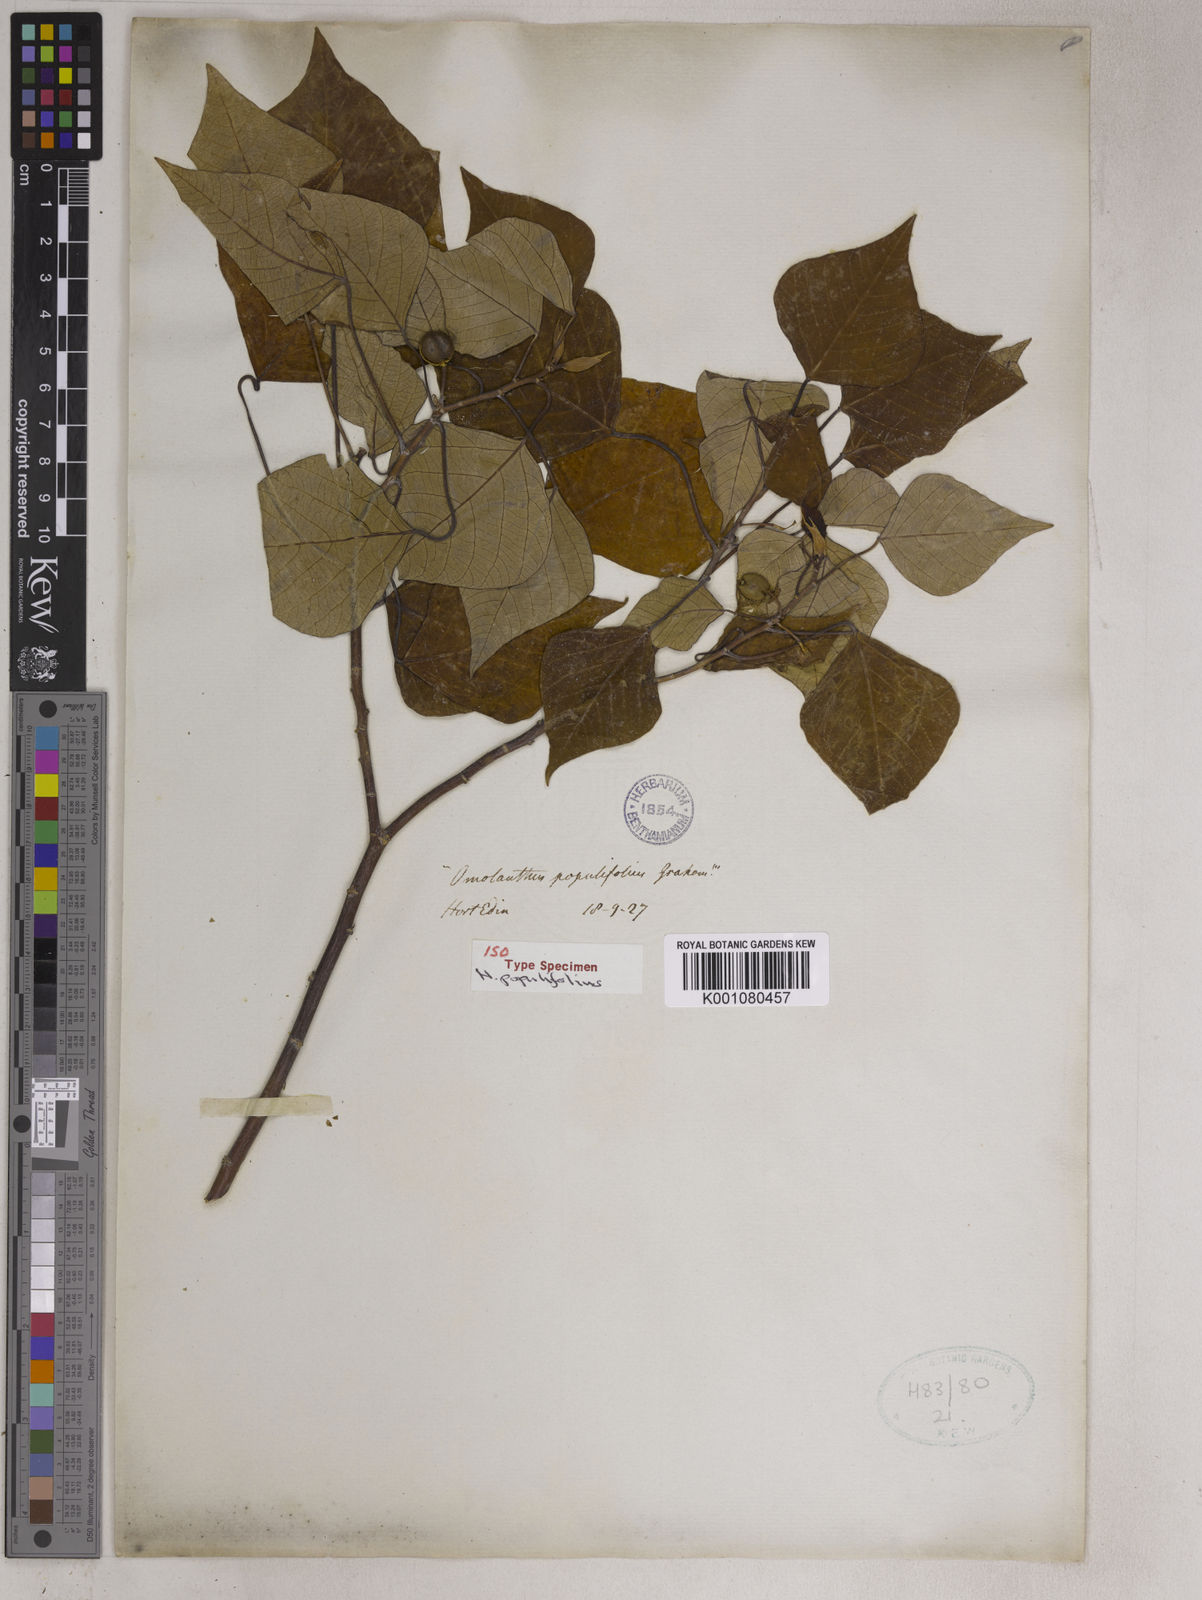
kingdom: Plantae
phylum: Tracheophyta
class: Magnoliopsida
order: Malpighiales
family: Euphorbiaceae
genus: Homalanthus
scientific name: Homalanthus populifolius
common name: Queensland poplar
